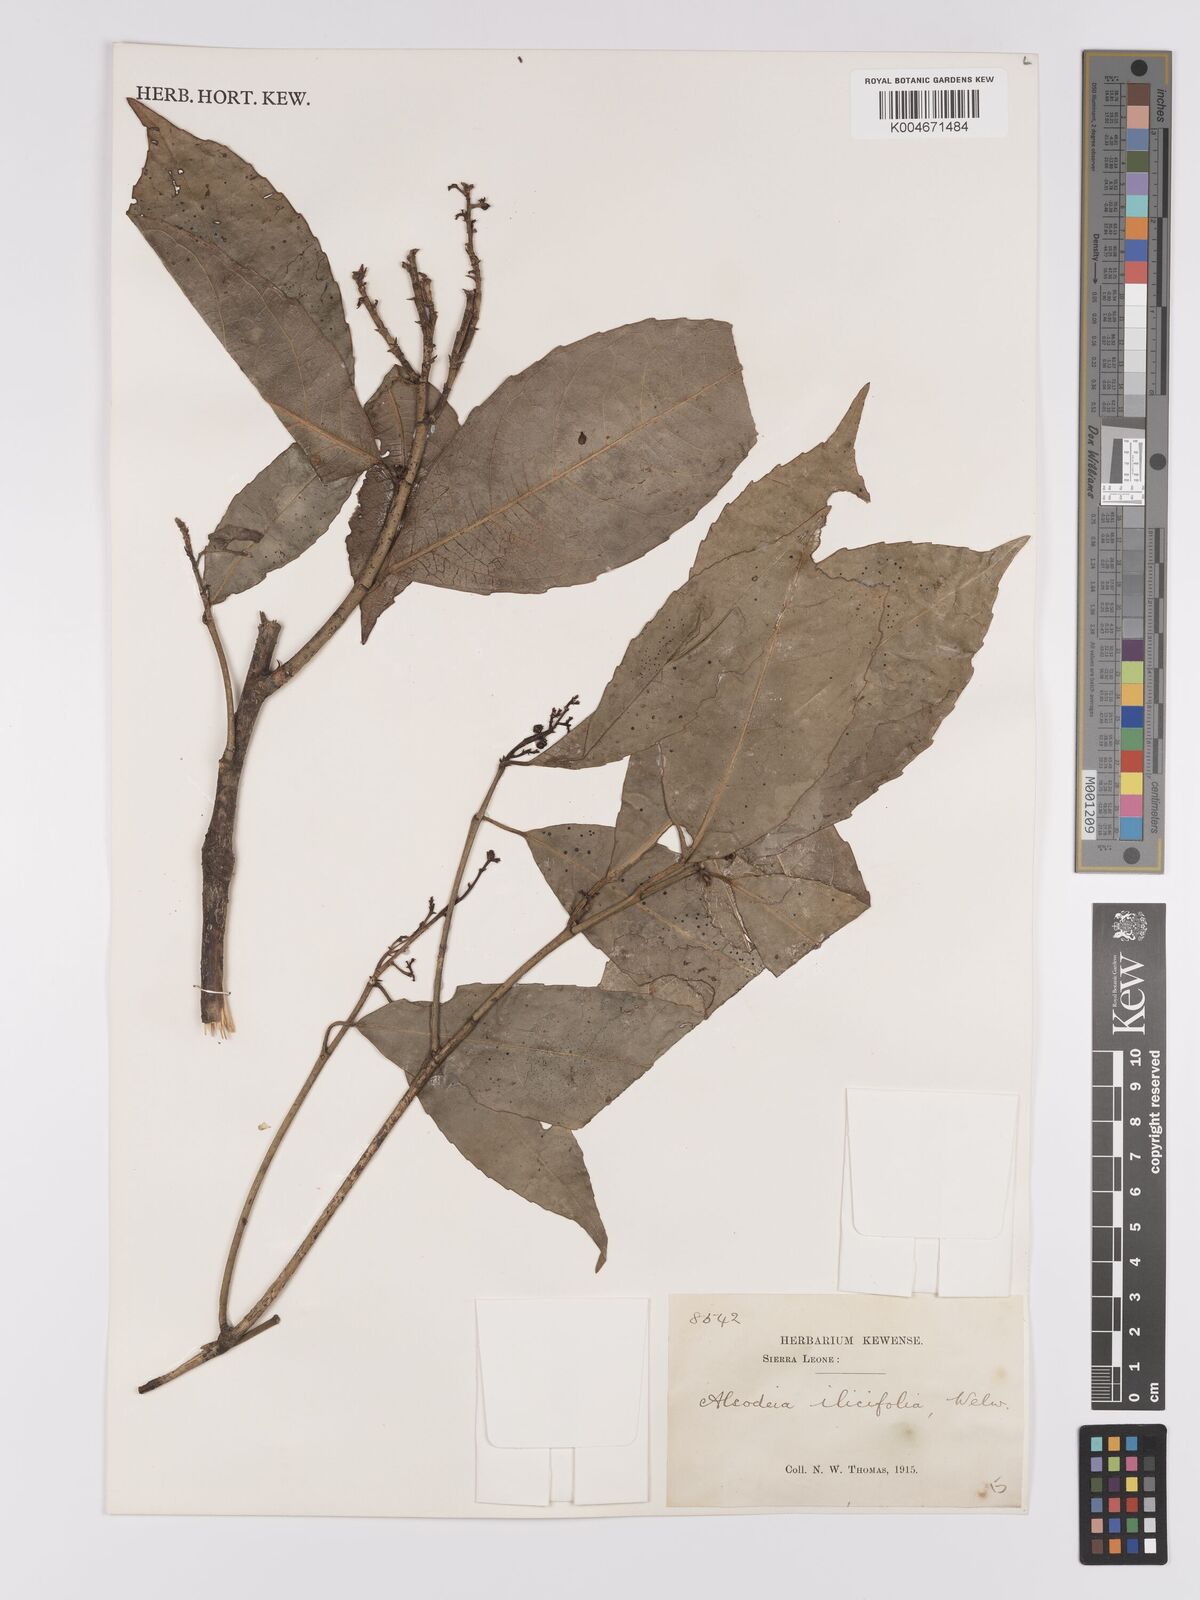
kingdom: Plantae
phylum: Tracheophyta
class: Magnoliopsida
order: Malpighiales
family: Violaceae
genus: Rinorea
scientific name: Rinorea ilicifolia
